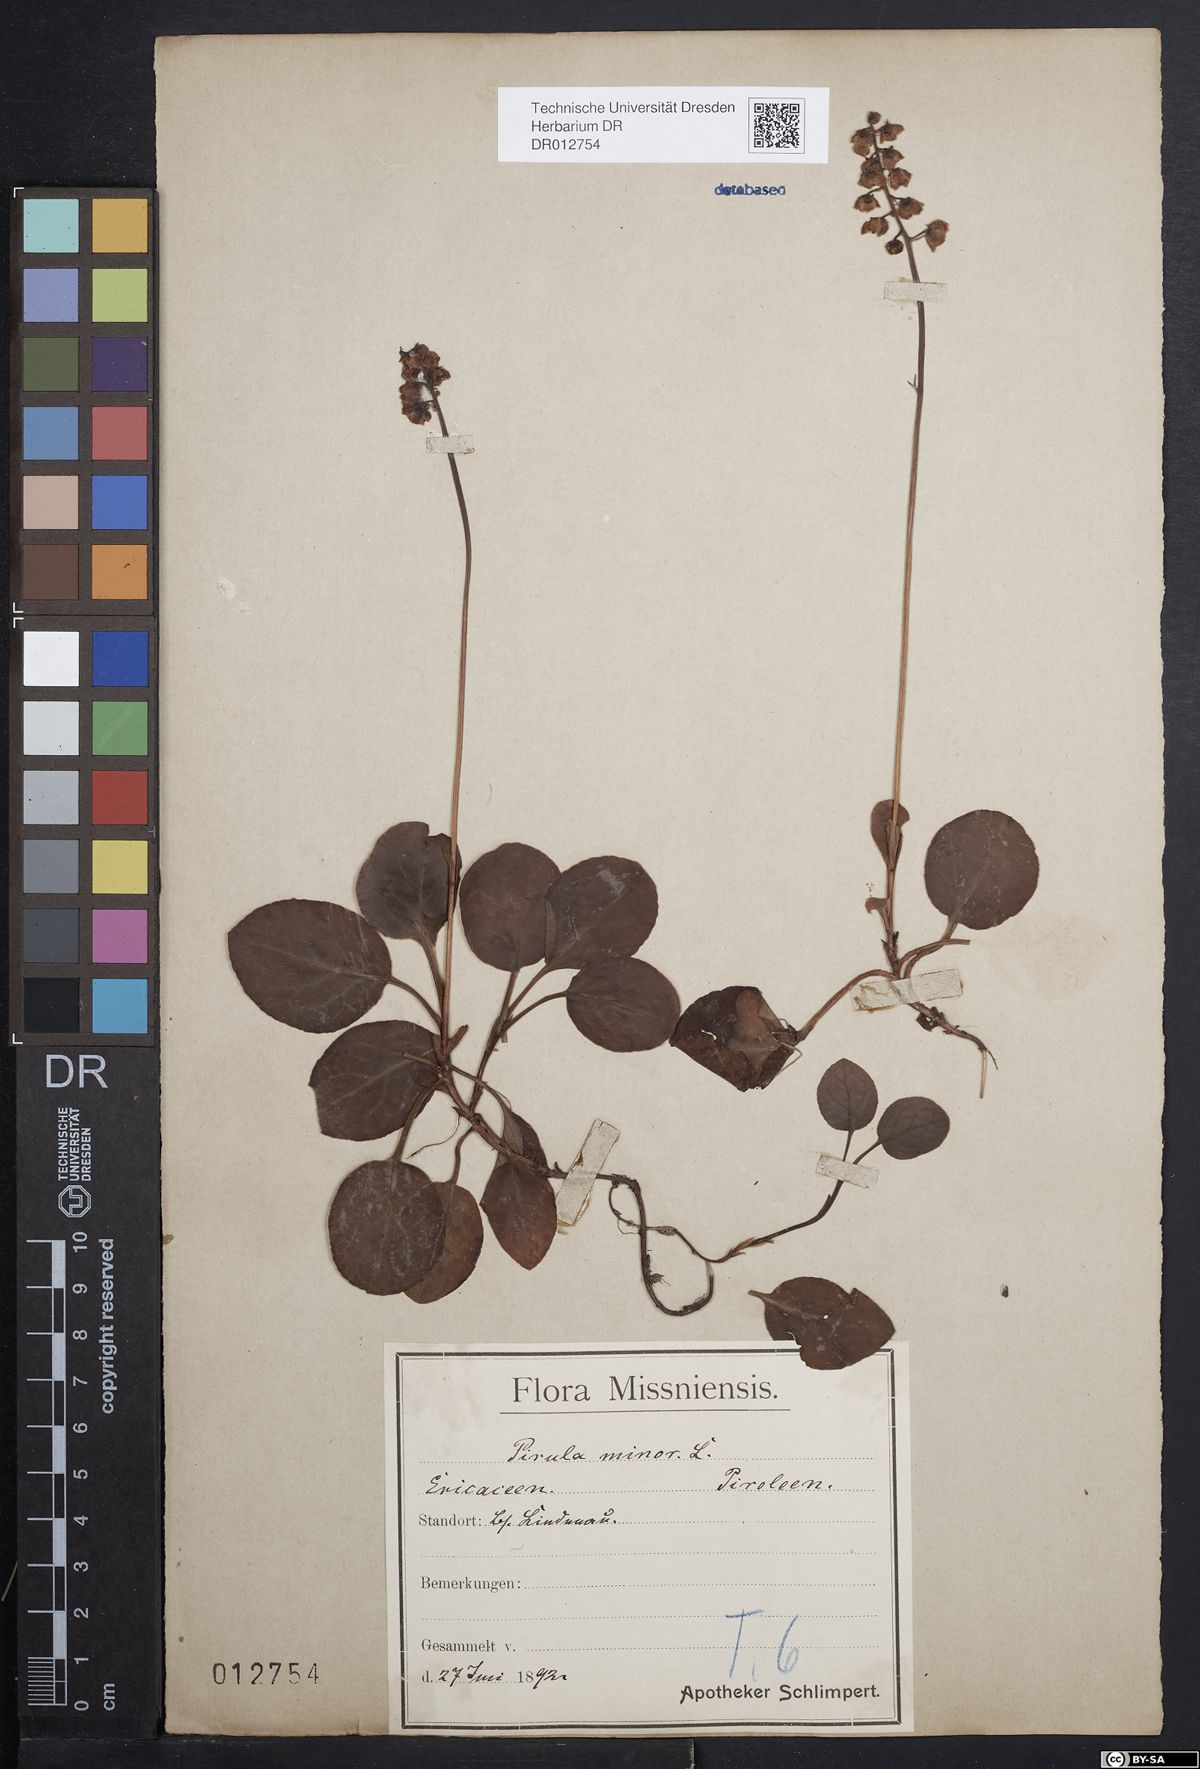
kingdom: Plantae
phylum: Tracheophyta
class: Magnoliopsida
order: Ericales
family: Ericaceae
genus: Pyrola
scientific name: Pyrola minor
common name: Common wintergreen
